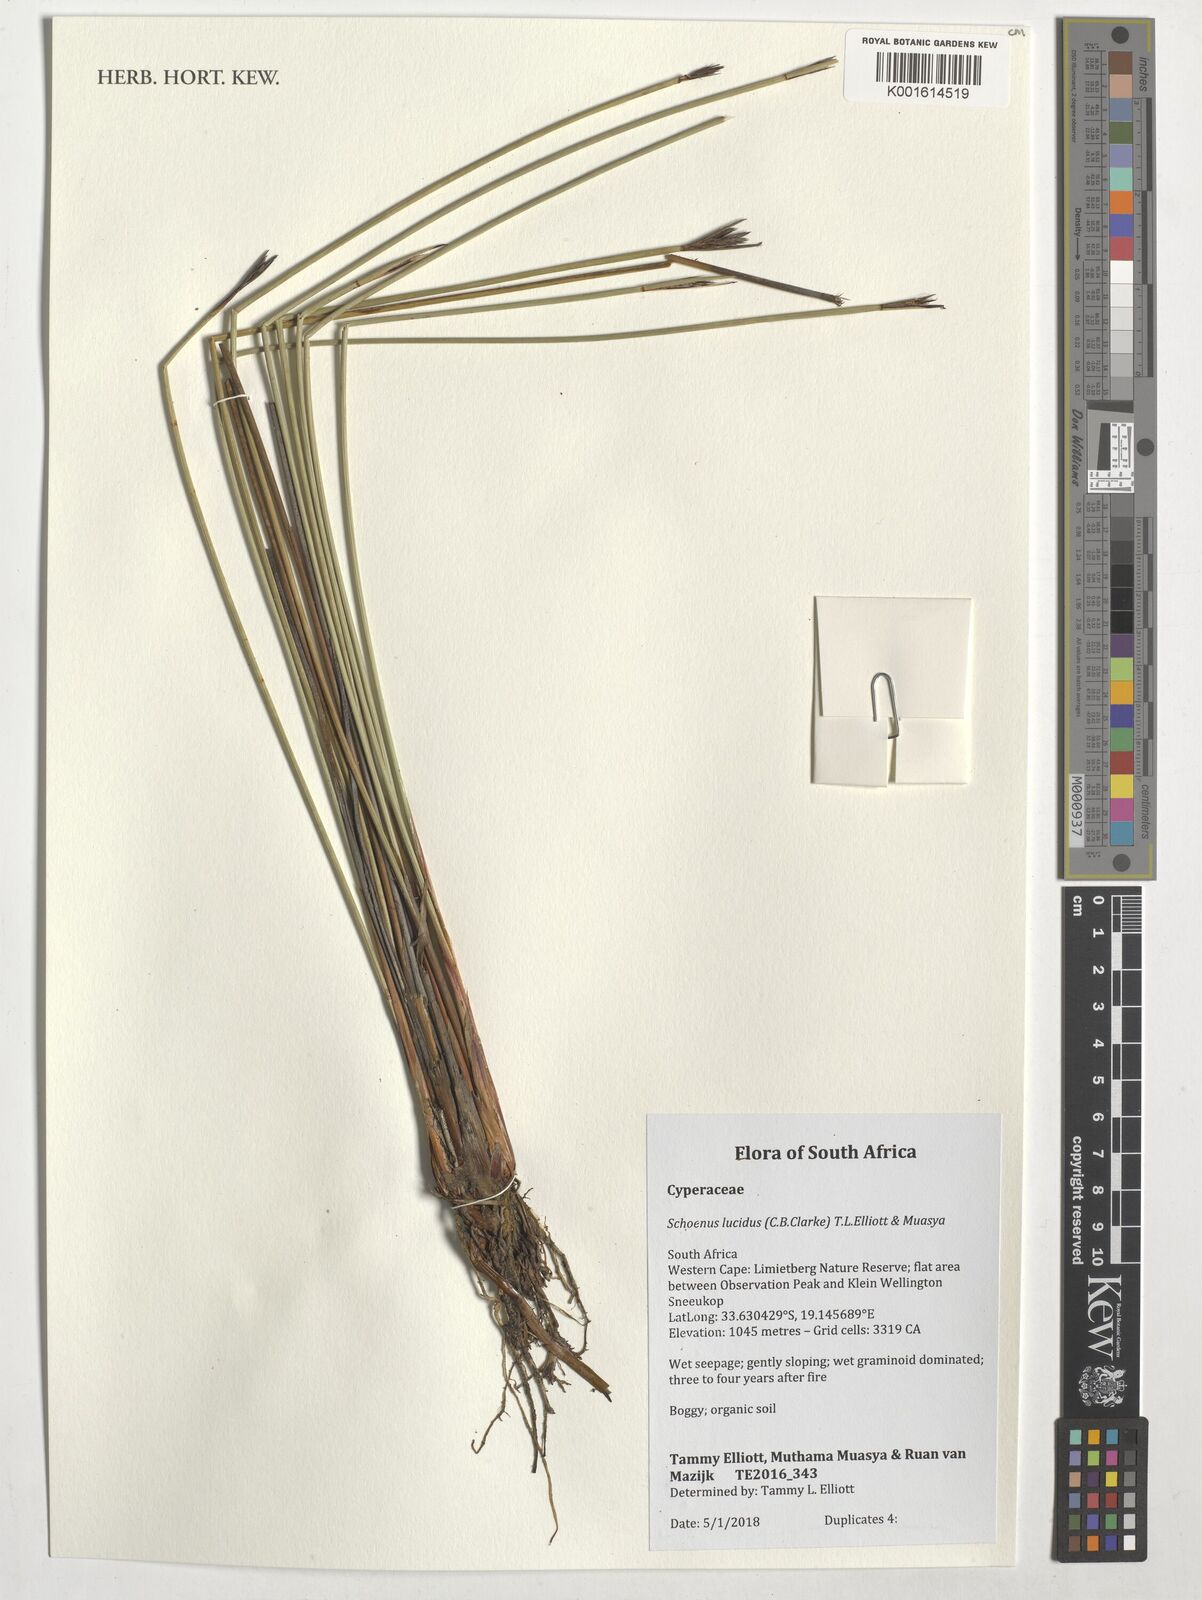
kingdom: Plantae
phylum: Tracheophyta
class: Liliopsida
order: Poales
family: Cyperaceae
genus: Schoenus
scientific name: Schoenus lucidus
